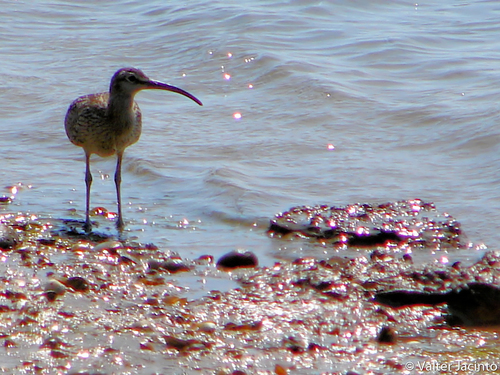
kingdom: Animalia
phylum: Chordata
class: Aves
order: Charadriiformes
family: Scolopacidae
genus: Numenius
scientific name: Numenius phaeopus
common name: Whimbrel
